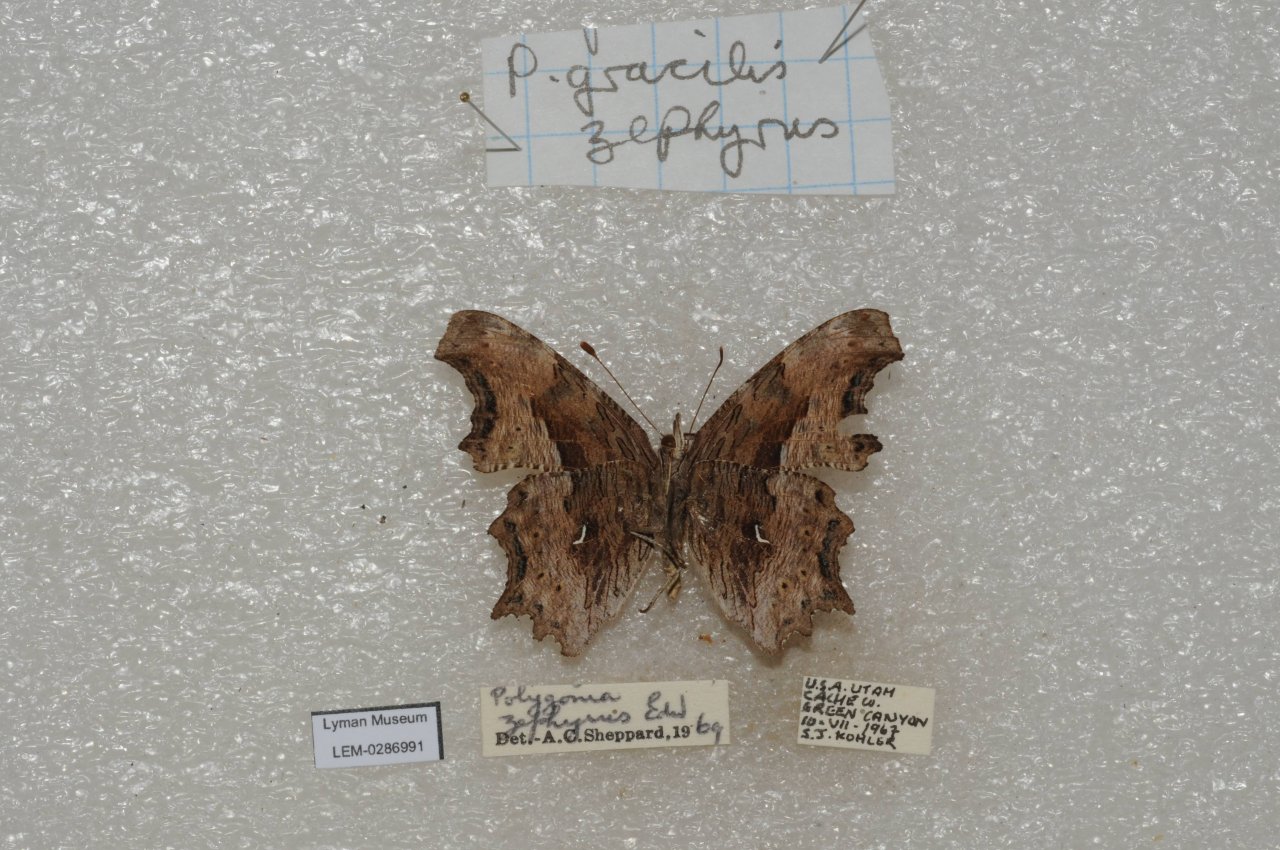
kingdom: Animalia
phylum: Arthropoda
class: Insecta
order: Lepidoptera
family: Nymphalidae
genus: Polygonia
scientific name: Polygonia gracilis
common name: Hoary Comma
